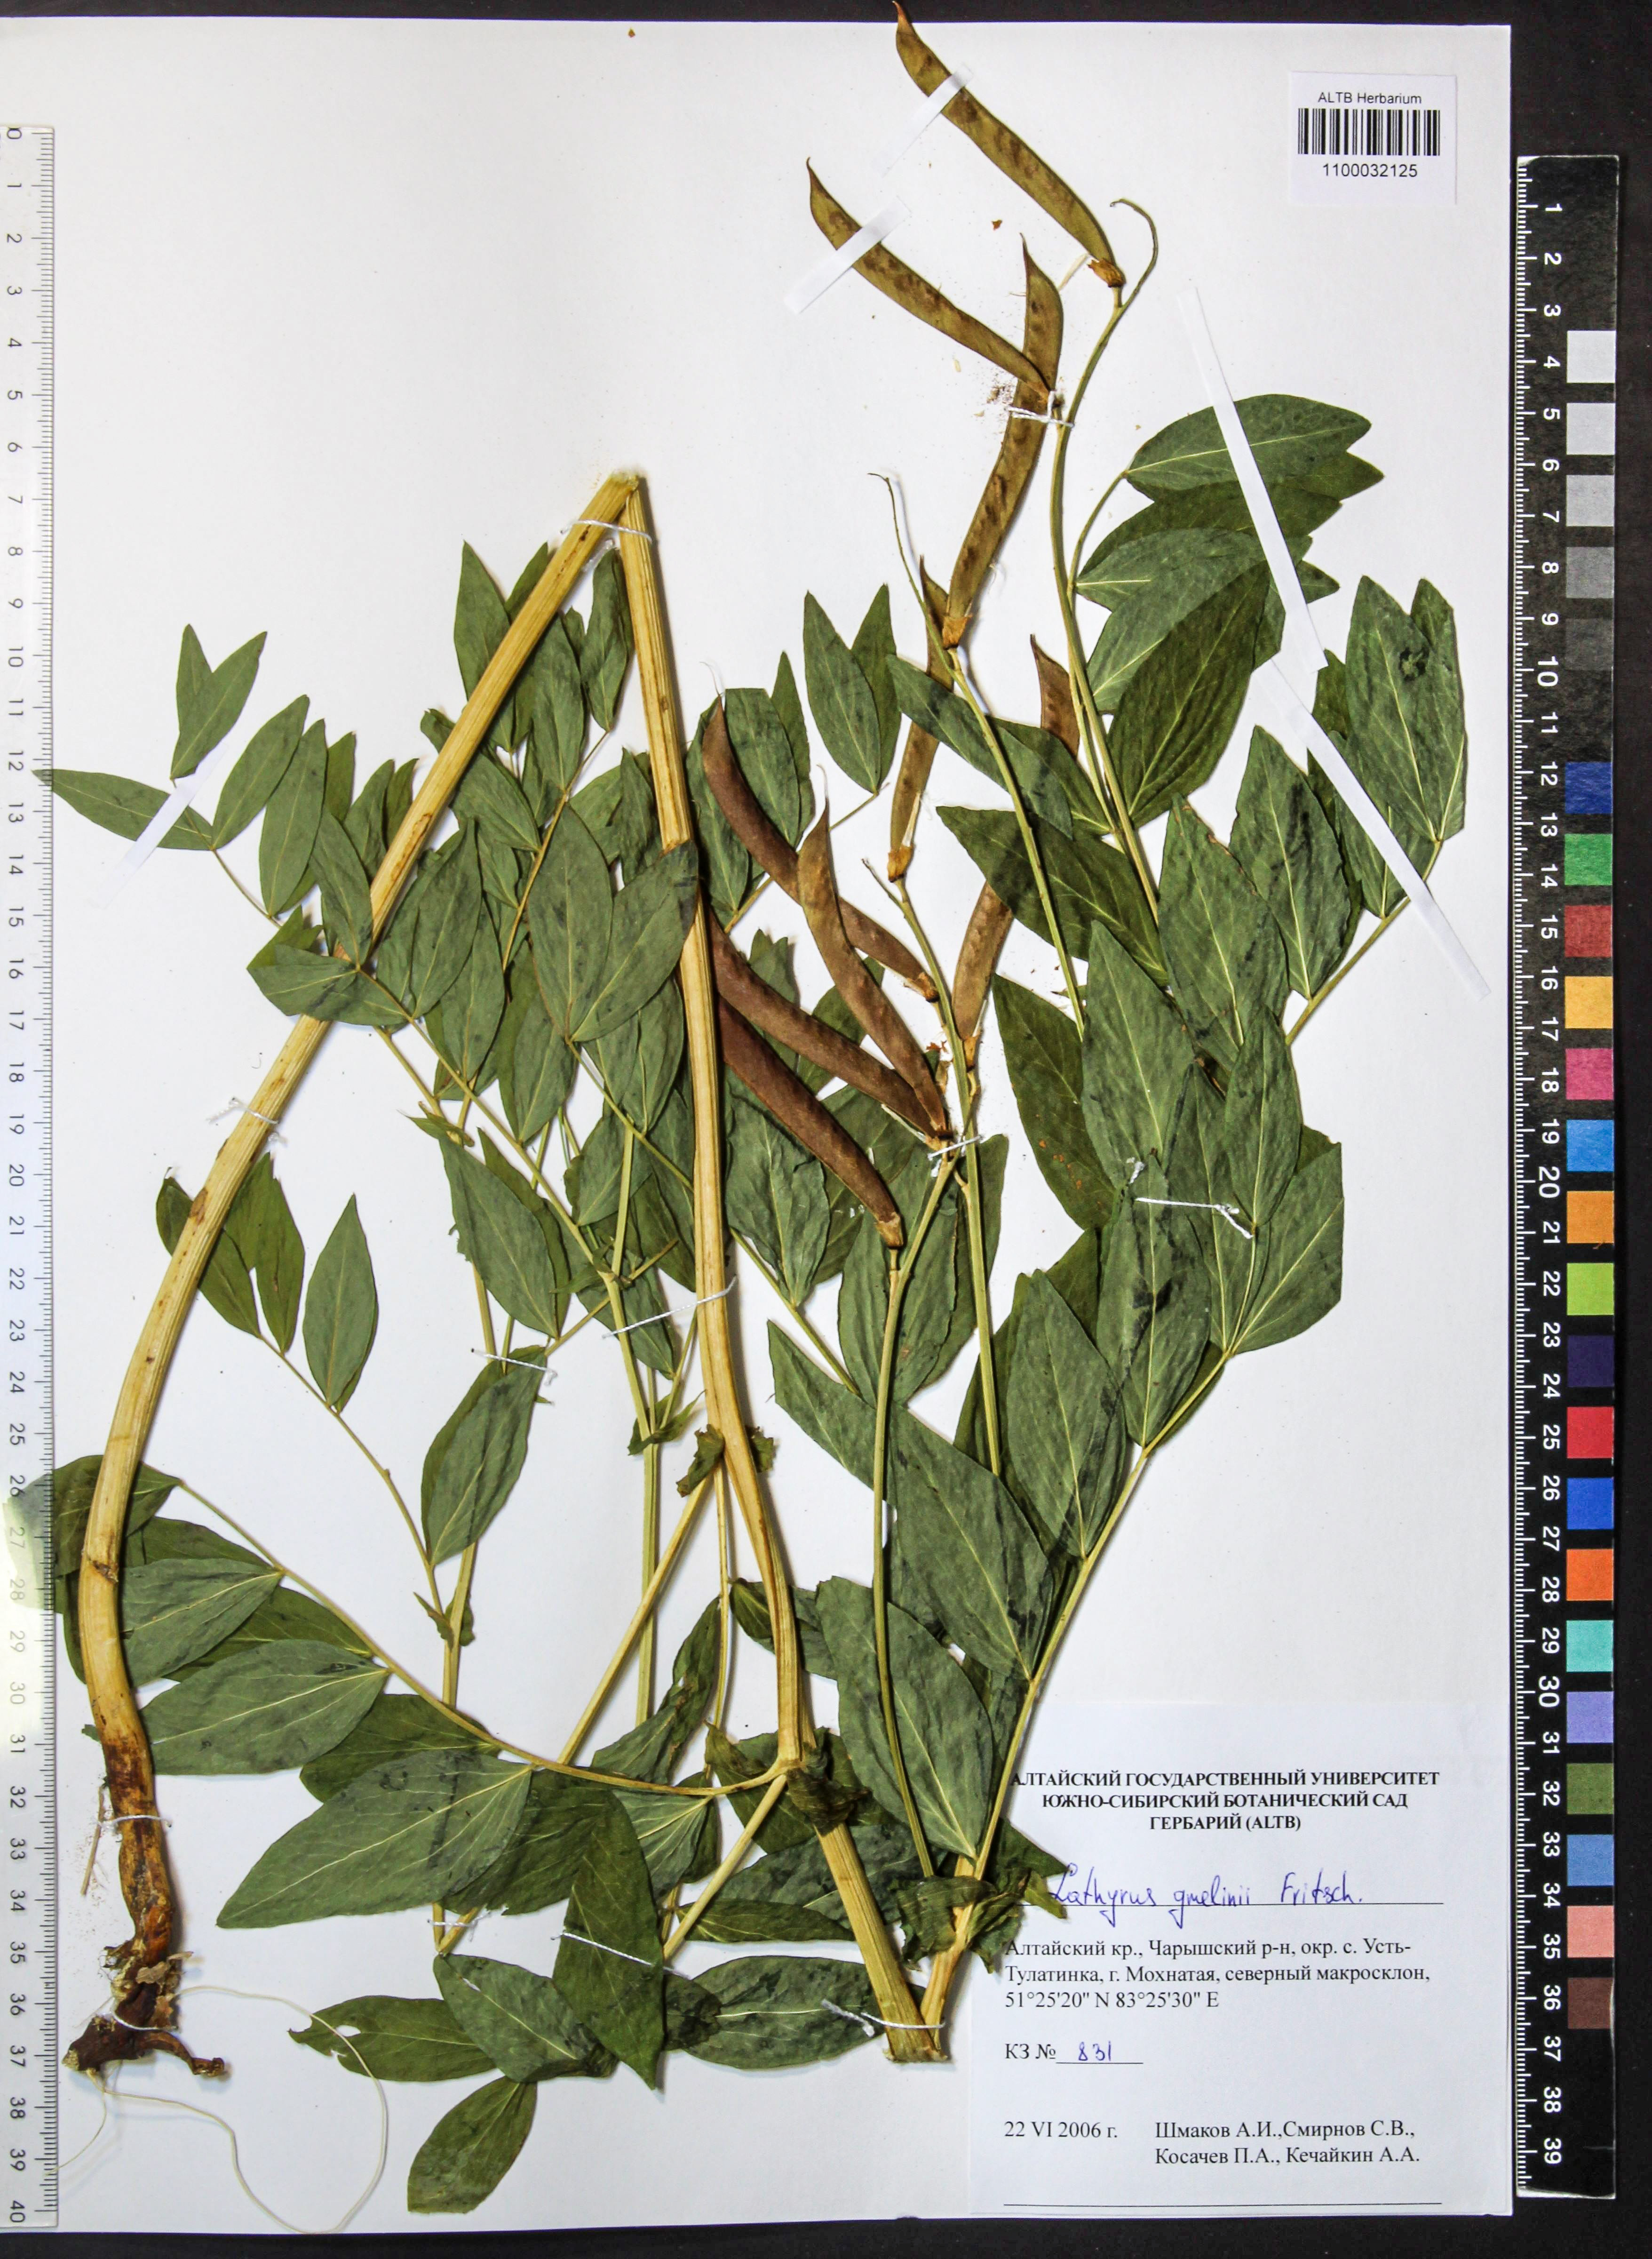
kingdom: Plantae
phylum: Tracheophyta
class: Magnoliopsida
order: Fabales
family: Fabaceae
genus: Lathyrus
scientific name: Lathyrus gmelinii
